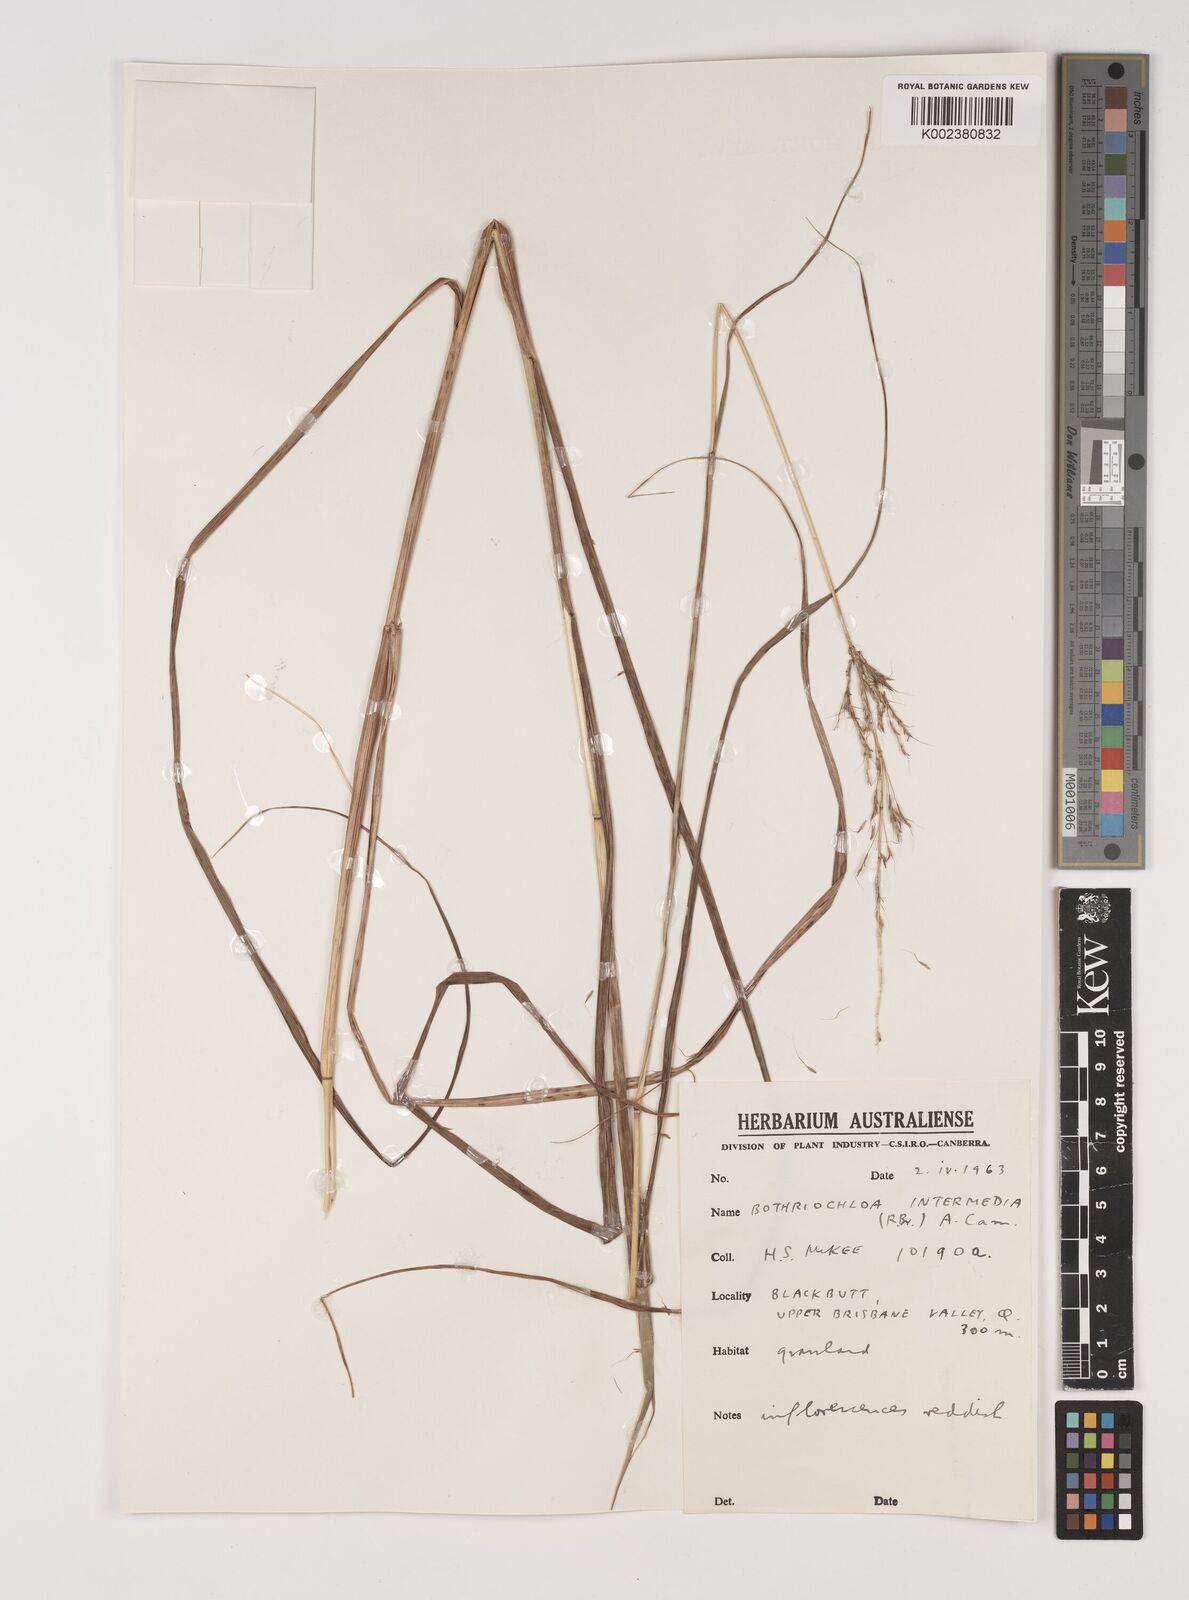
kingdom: Plantae
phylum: Tracheophyta
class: Liliopsida
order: Poales
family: Poaceae
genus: Bothriochloa
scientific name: Bothriochloa bladhii
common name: Caucasian bluestem
